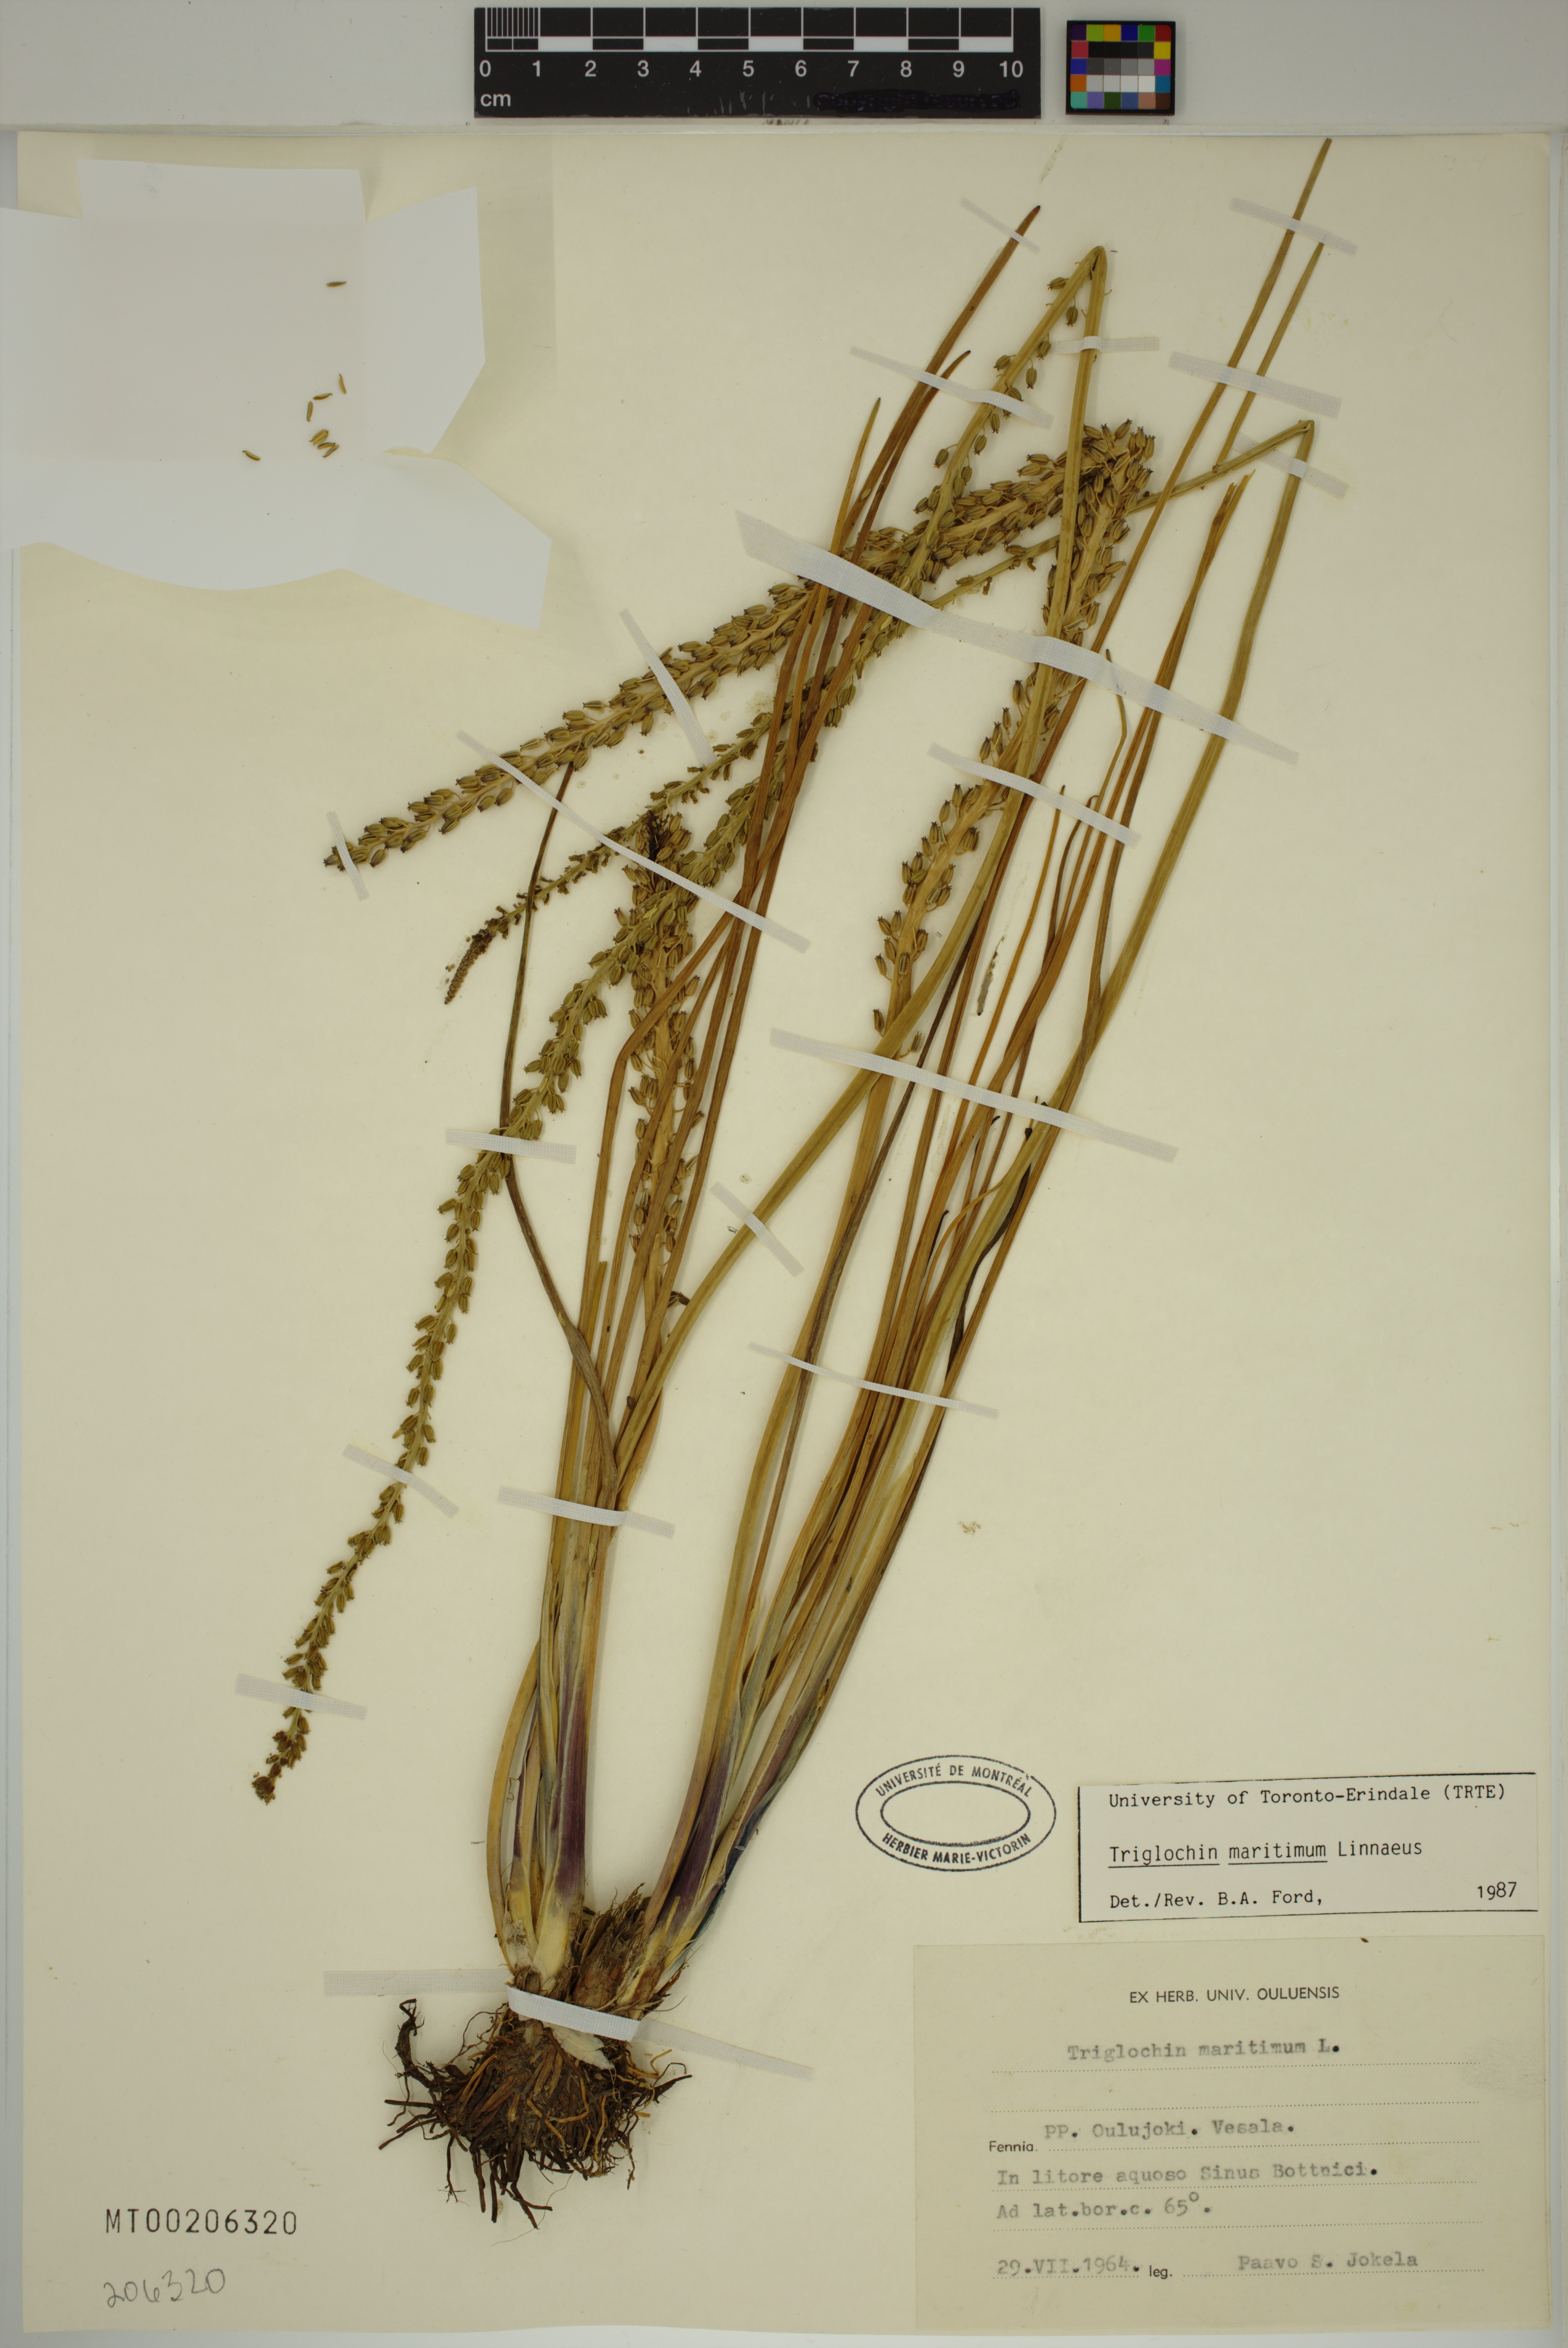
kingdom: Plantae
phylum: Tracheophyta
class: Liliopsida
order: Alismatales
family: Juncaginaceae
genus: Triglochin
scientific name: Triglochin maritima
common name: Sea arrowgrass
